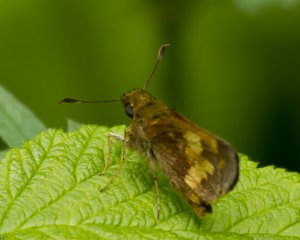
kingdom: Animalia
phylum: Arthropoda
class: Insecta
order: Lepidoptera
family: Hesperiidae
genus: Lon
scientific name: Lon hobomok
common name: Hobomok Skipper
